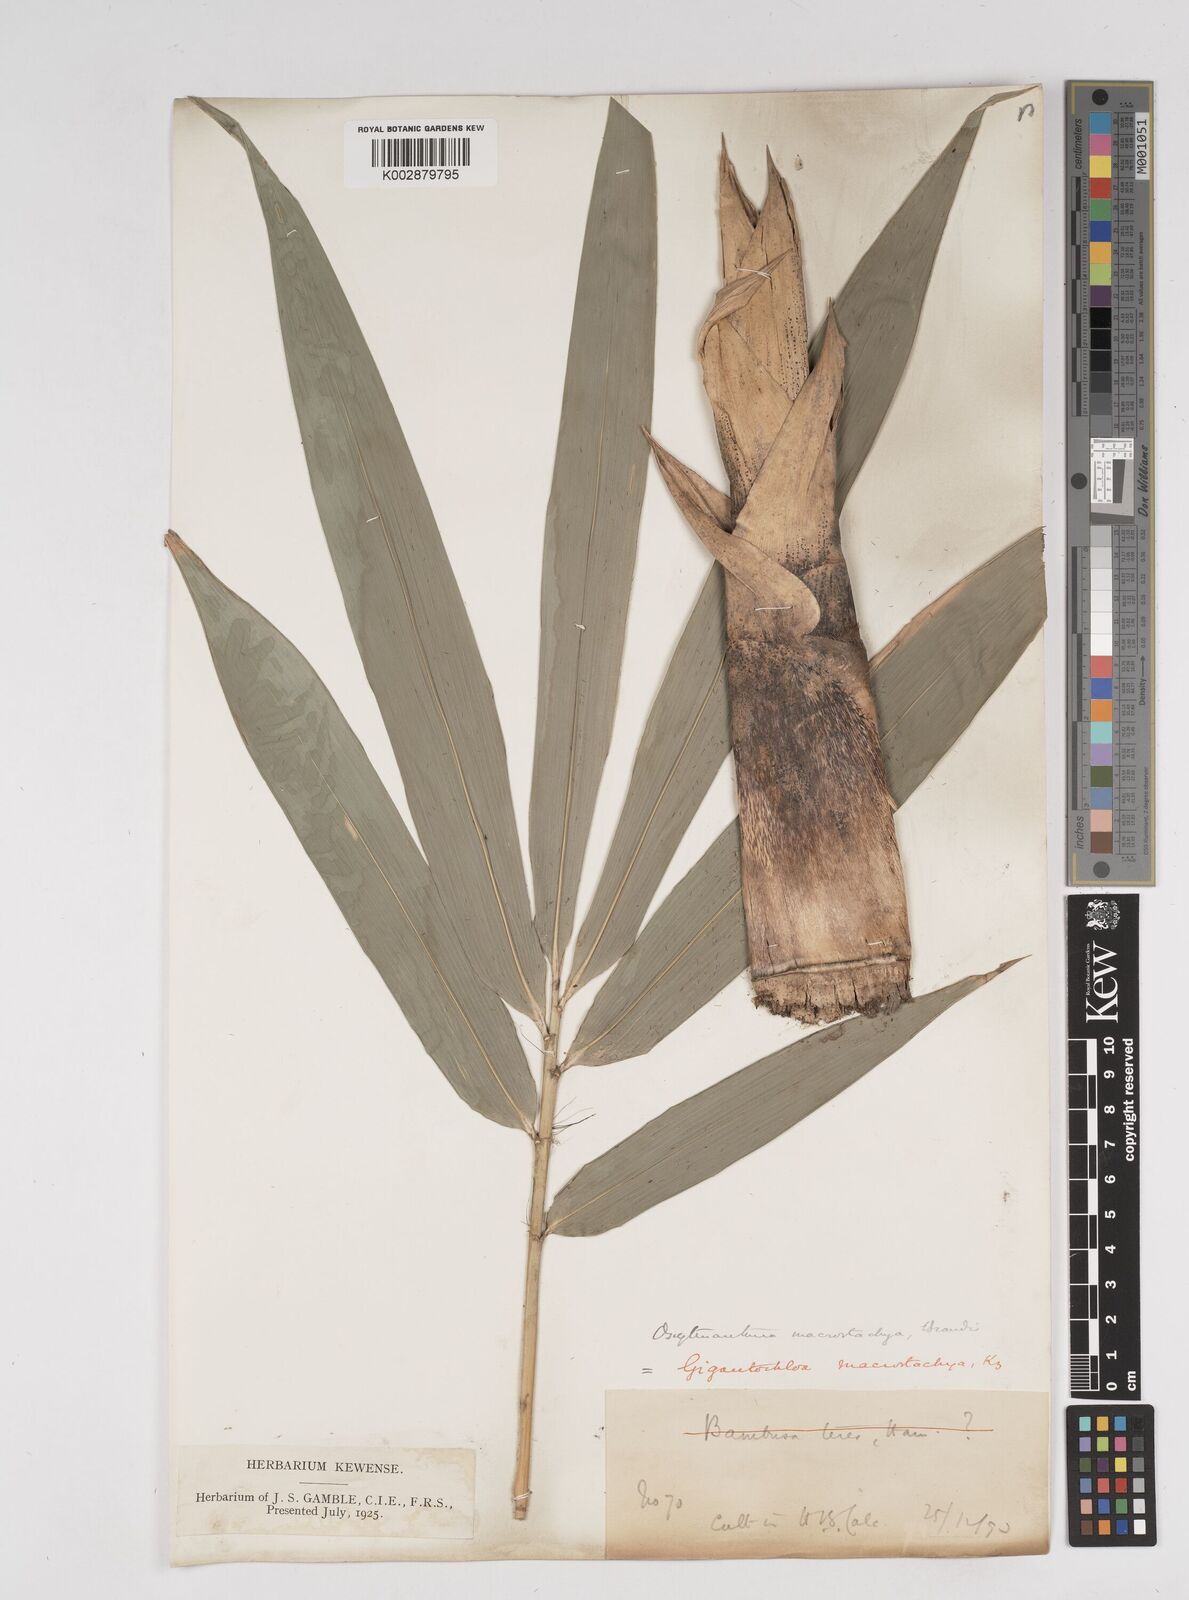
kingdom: Plantae
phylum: Tracheophyta
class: Liliopsida
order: Poales
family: Poaceae
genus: Gigantochloa
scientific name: Gigantochloa macrostachya
